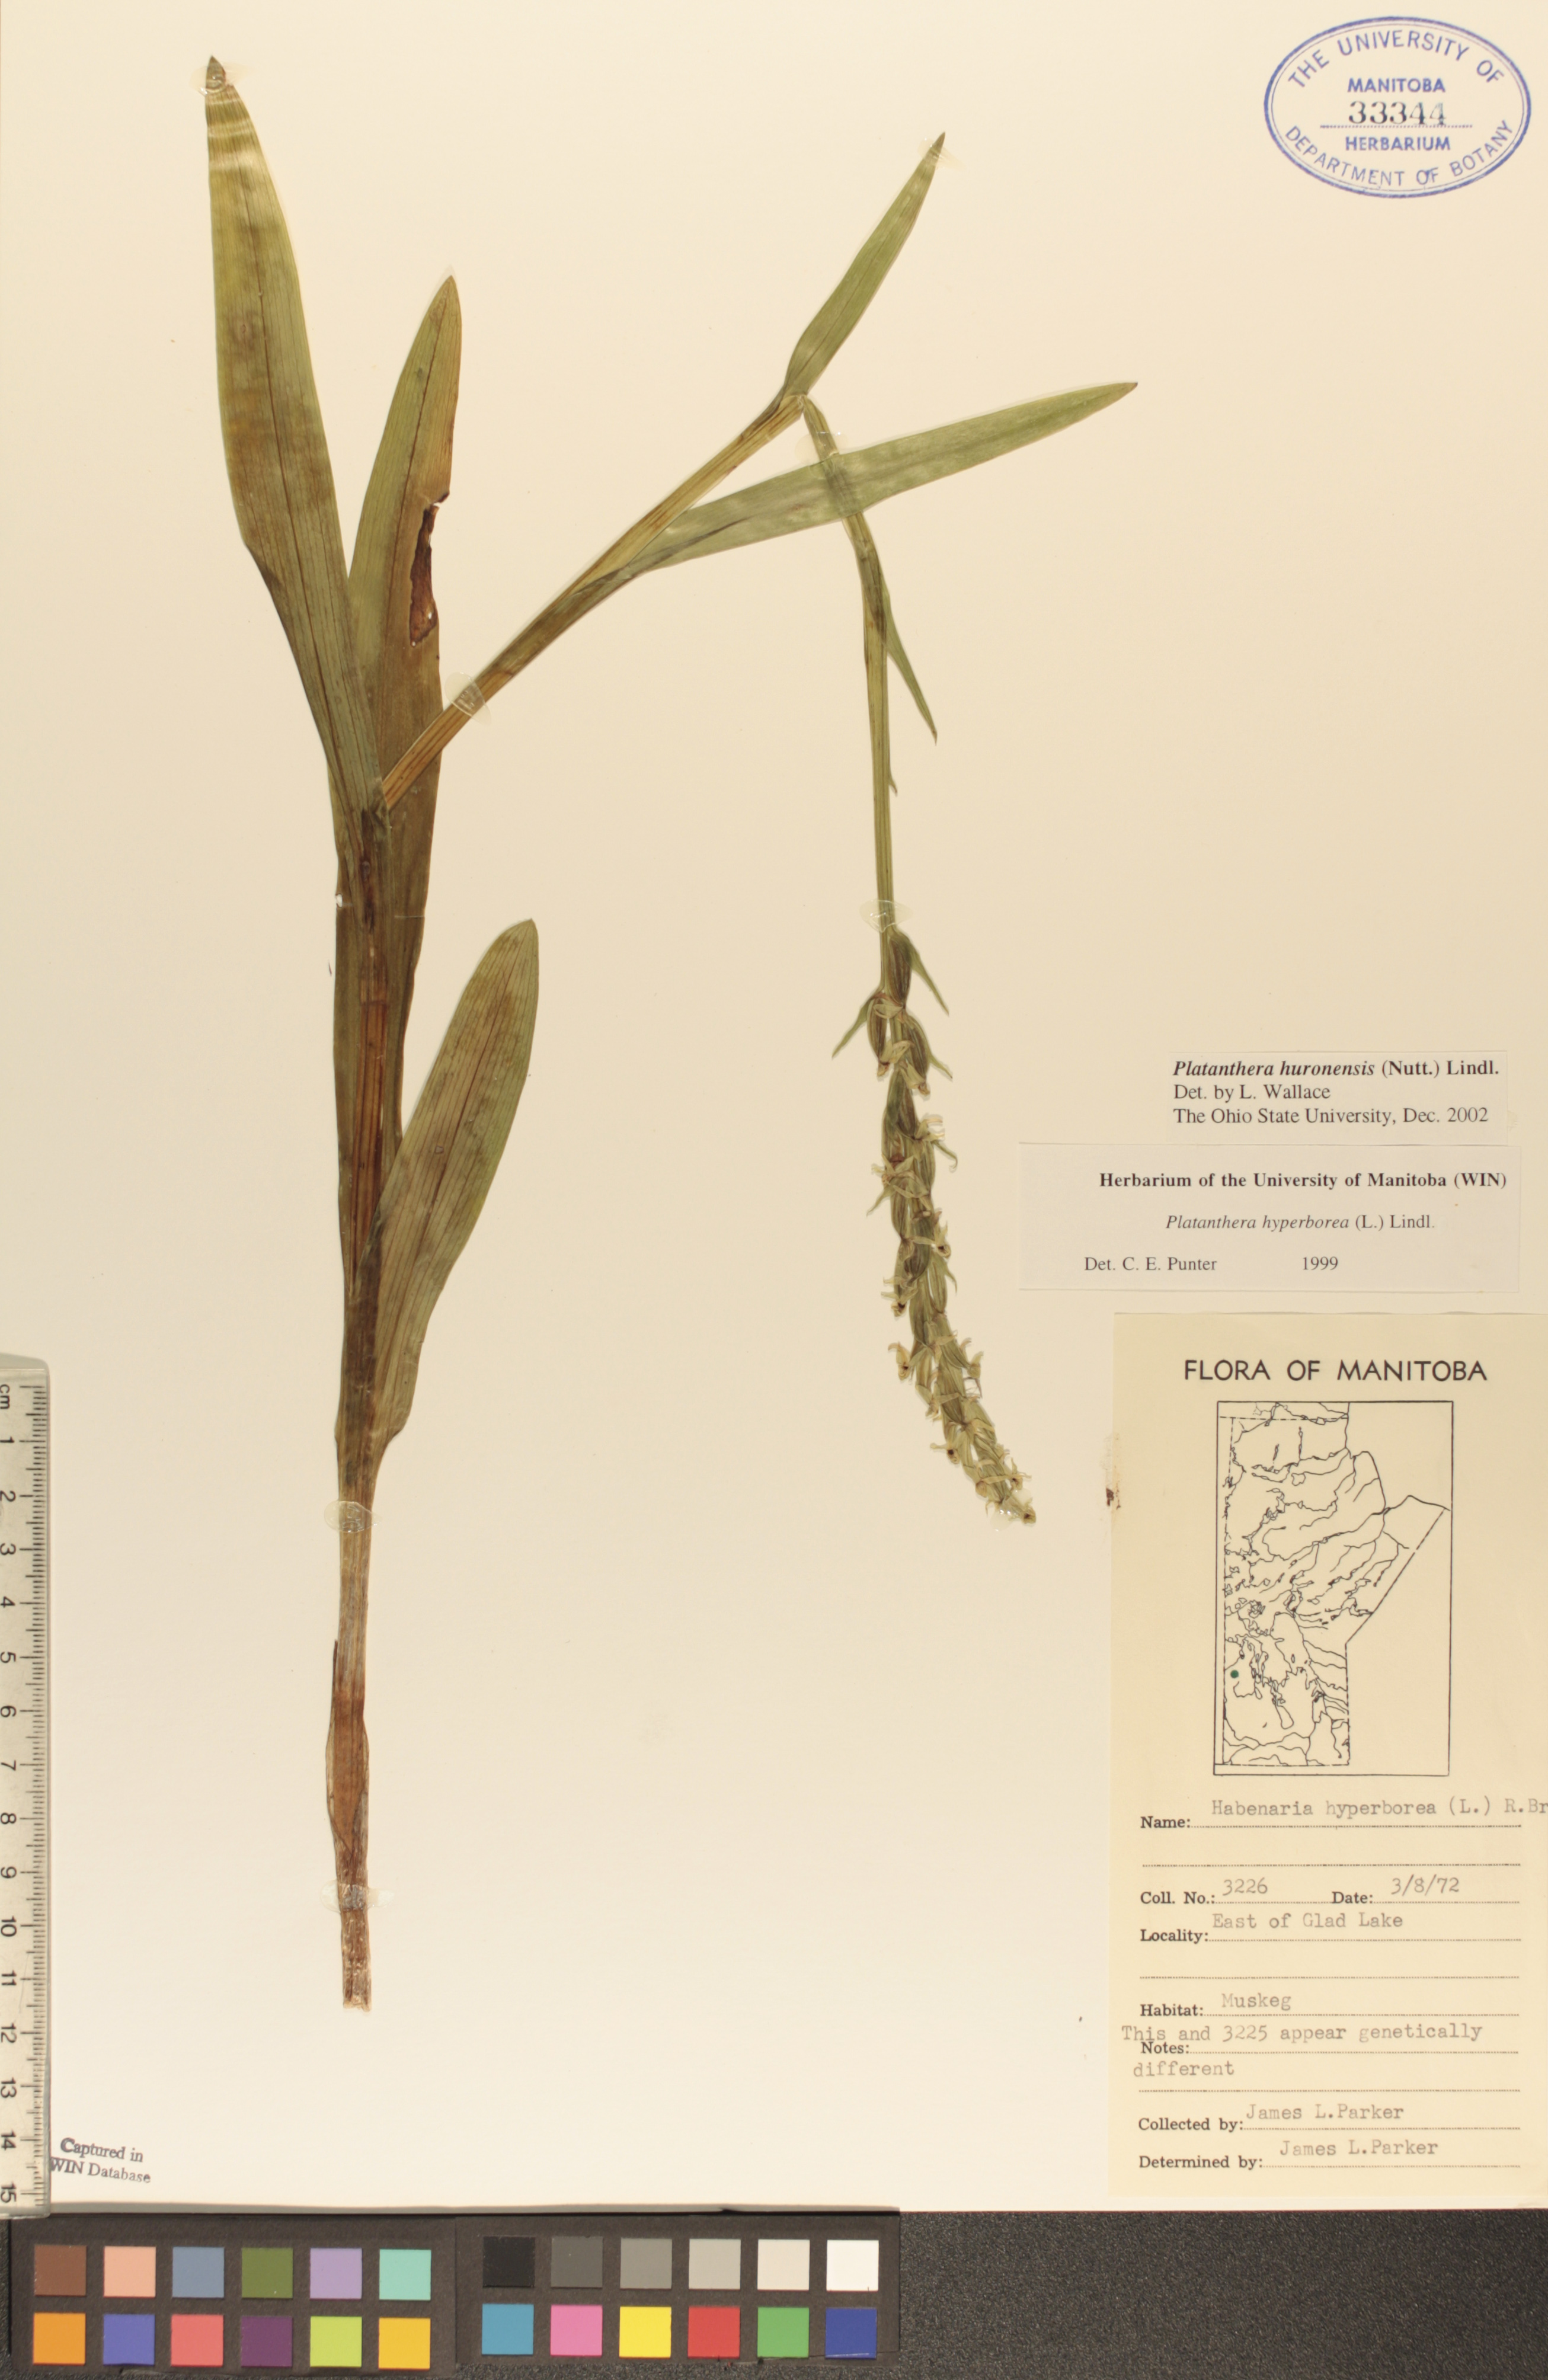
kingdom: Plantae
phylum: Tracheophyta
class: Liliopsida
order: Asparagales
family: Orchidaceae
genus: Platanthera
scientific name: Platanthera huronensis
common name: Fragrant green orchid
